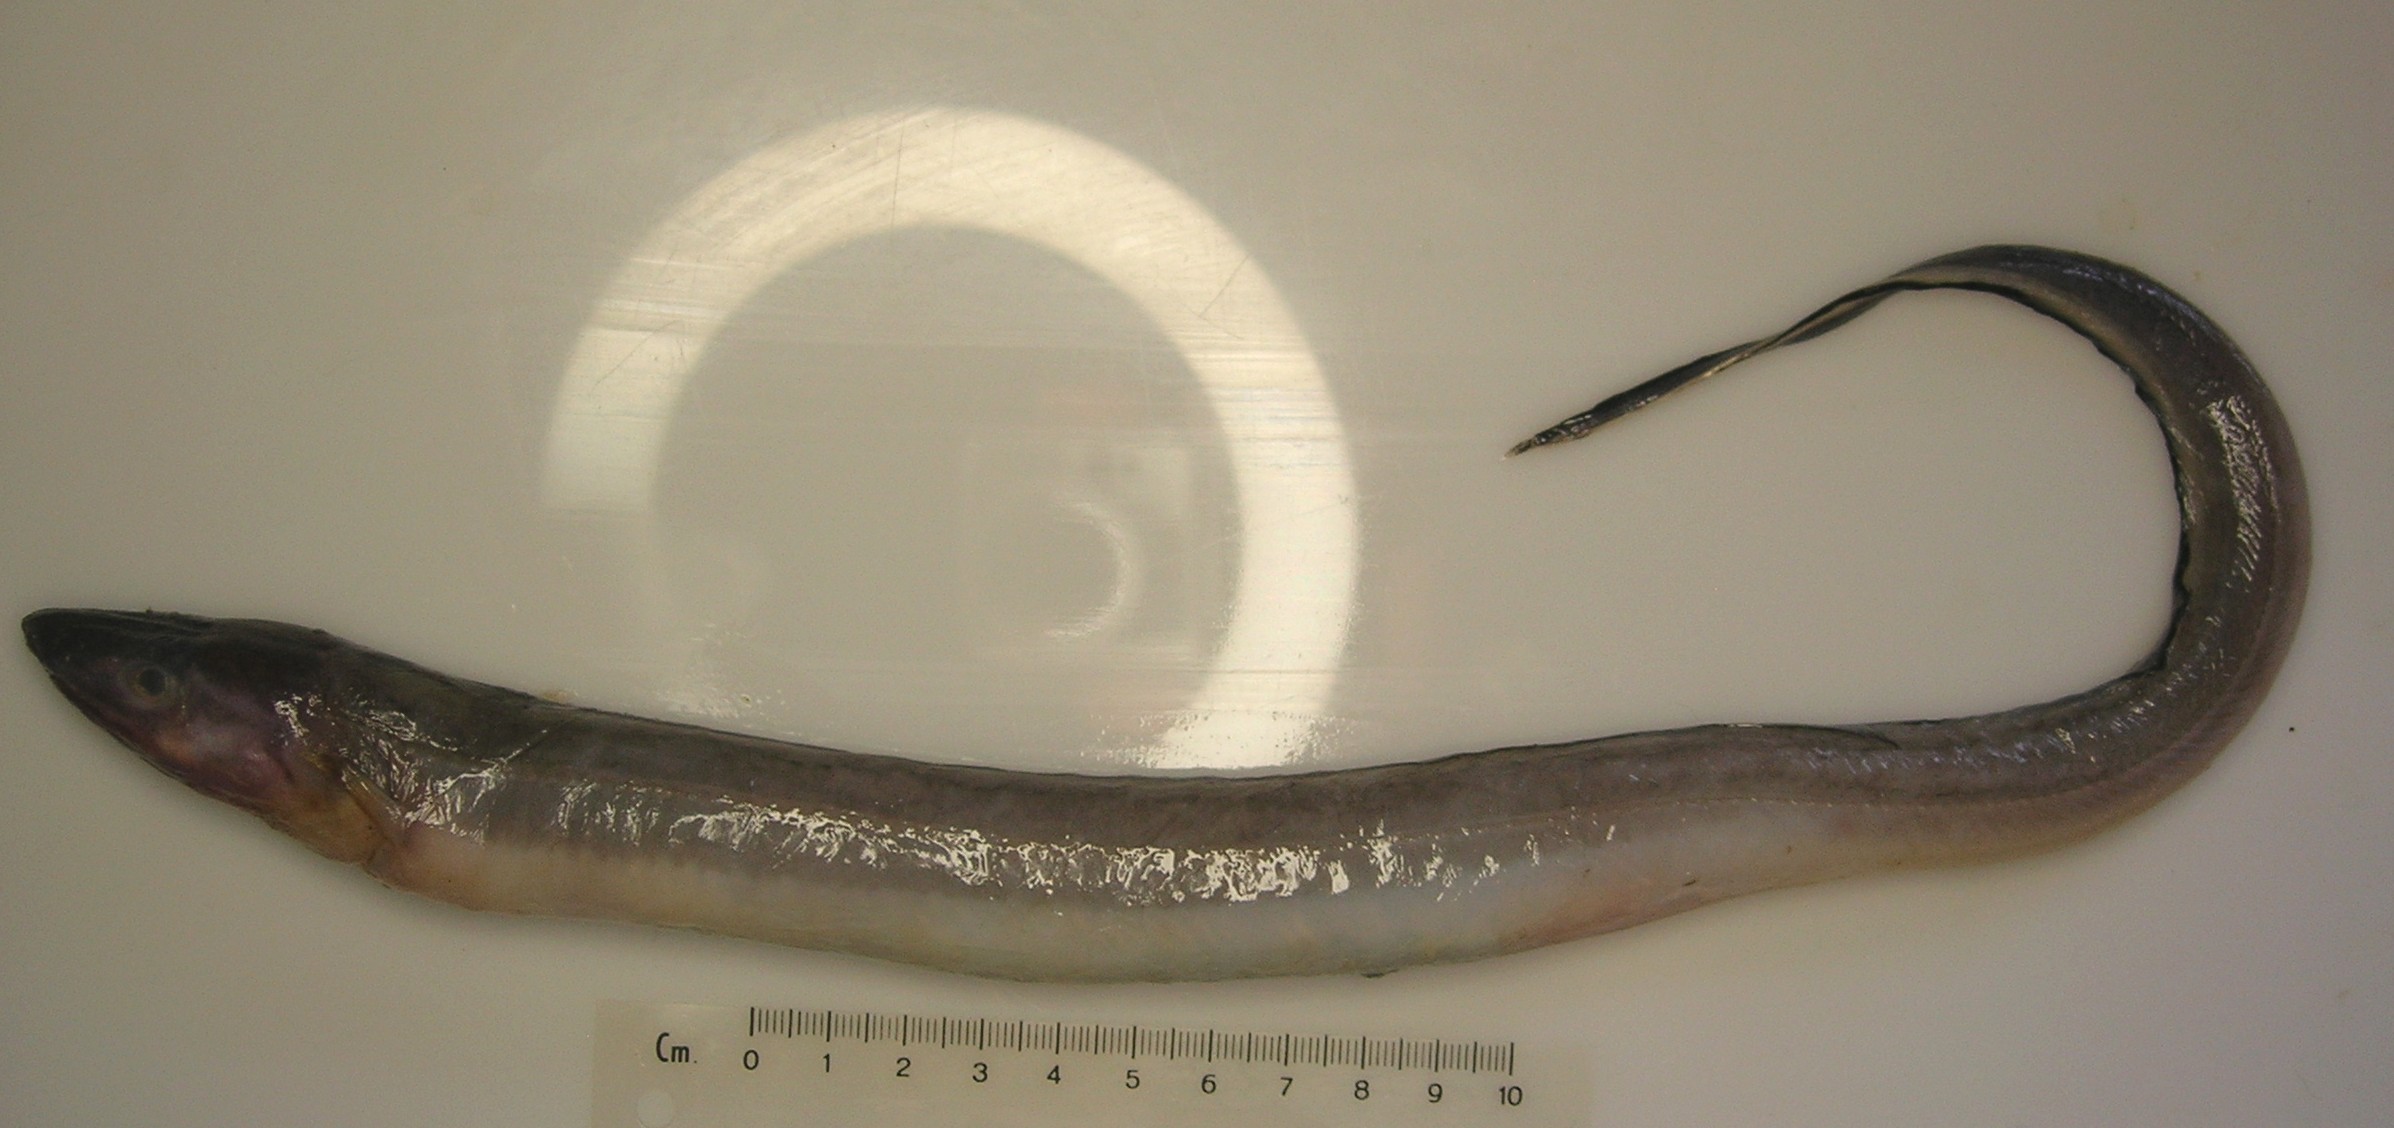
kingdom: Animalia
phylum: Chordata
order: Anguilliformes
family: Congridae
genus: Bathycongrus
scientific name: Bathycongrus wallacei
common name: Longnose conger
